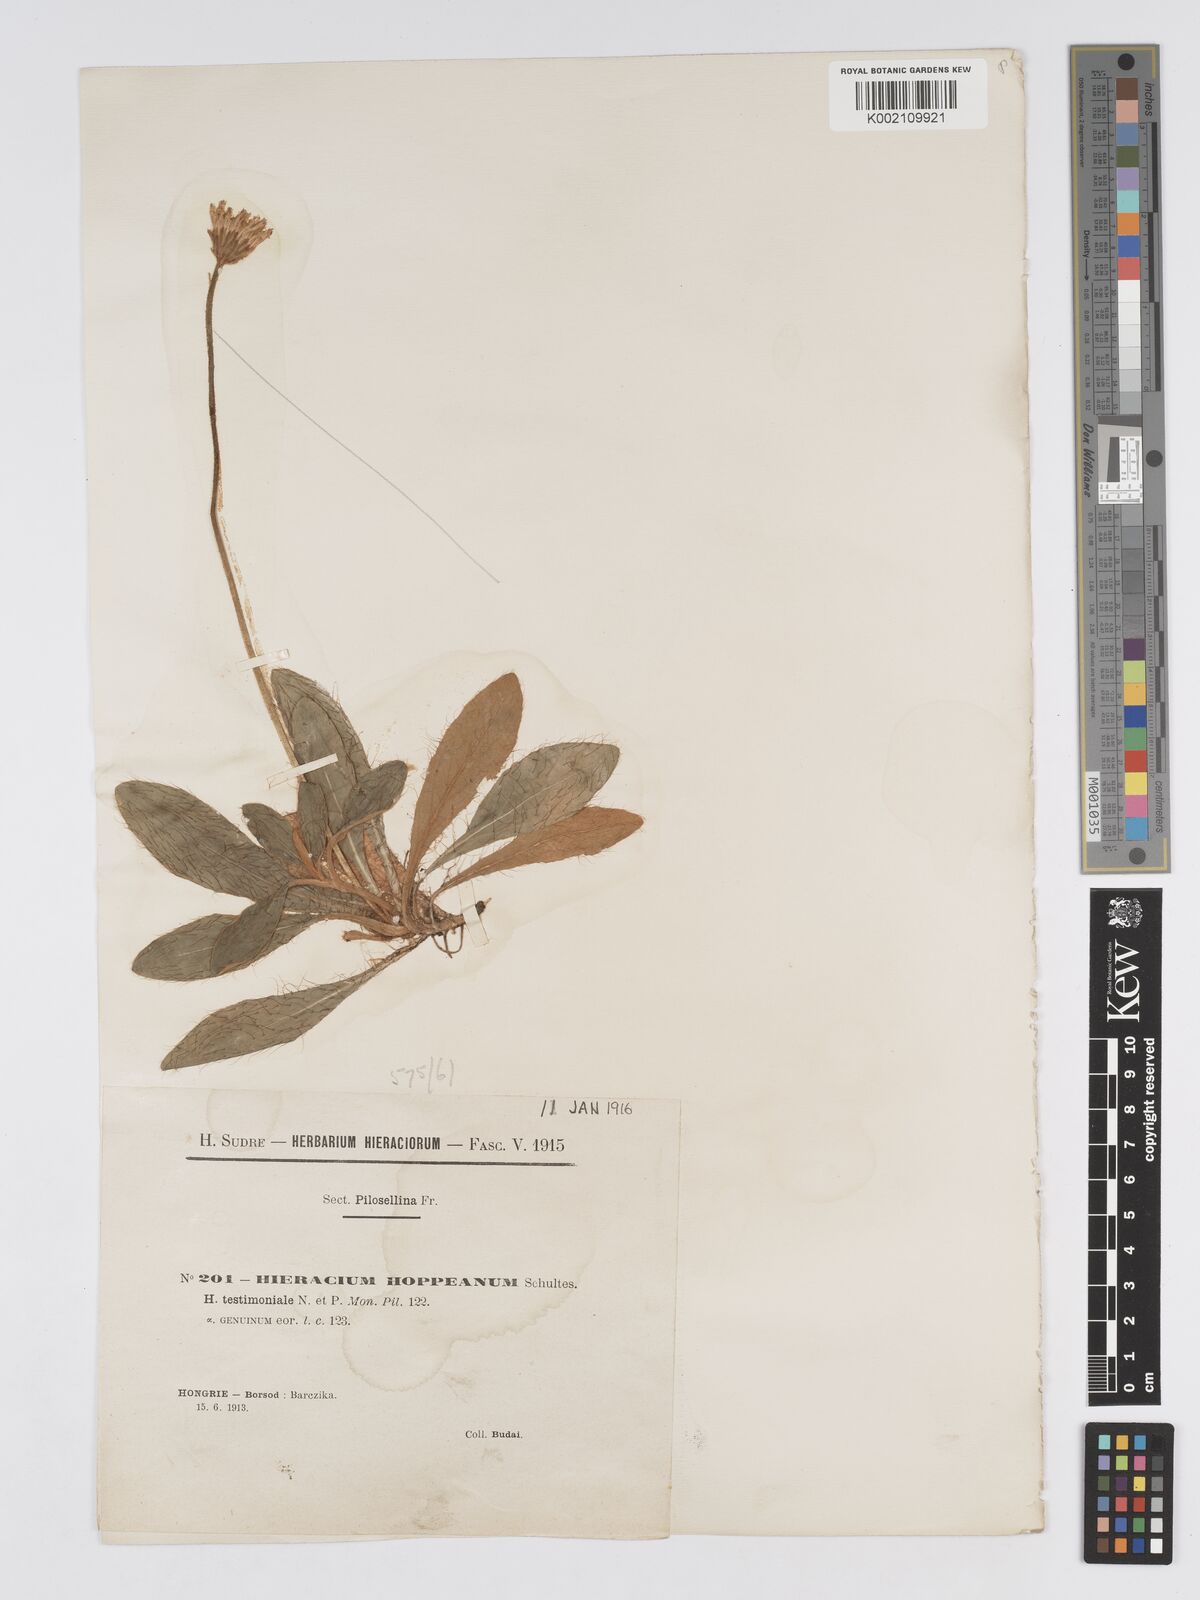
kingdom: Plantae
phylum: Tracheophyta
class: Magnoliopsida
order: Asterales
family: Asteraceae
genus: Pilosella
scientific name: Pilosella leucopsilon
